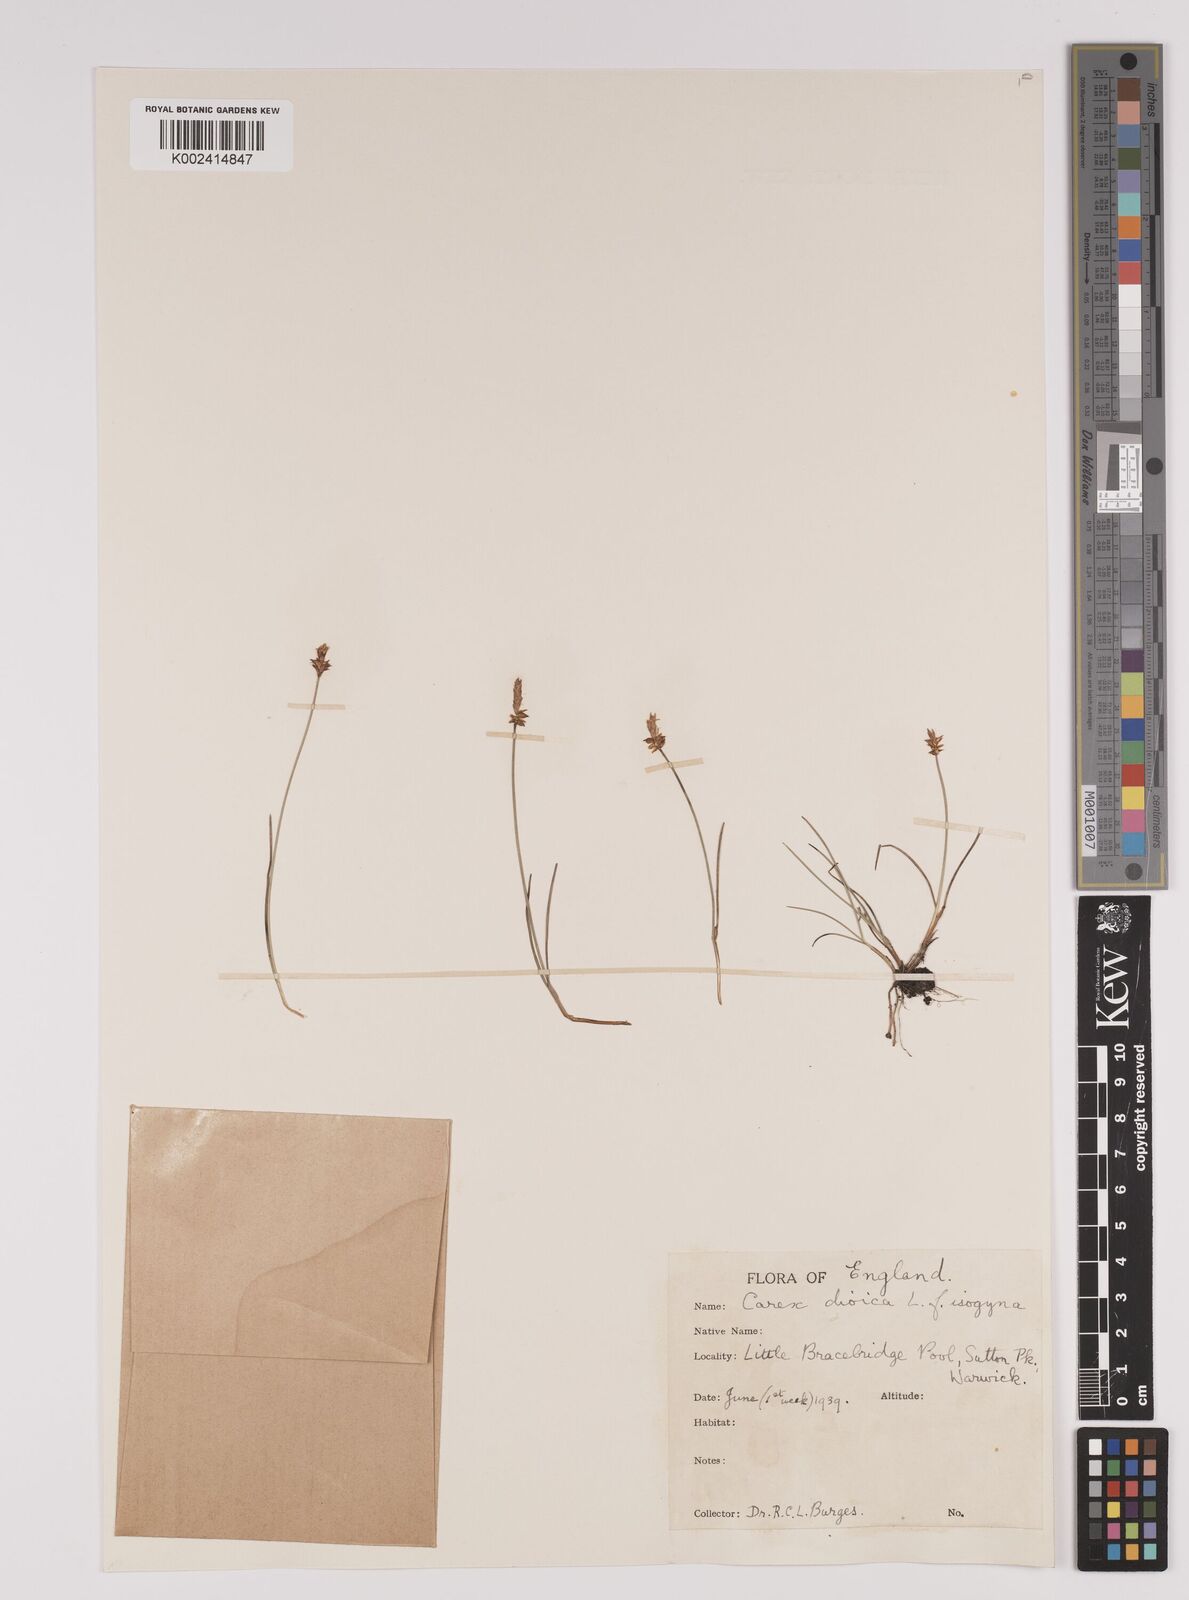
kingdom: Plantae
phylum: Tracheophyta
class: Liliopsida
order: Poales
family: Cyperaceae
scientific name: Cyperaceae
